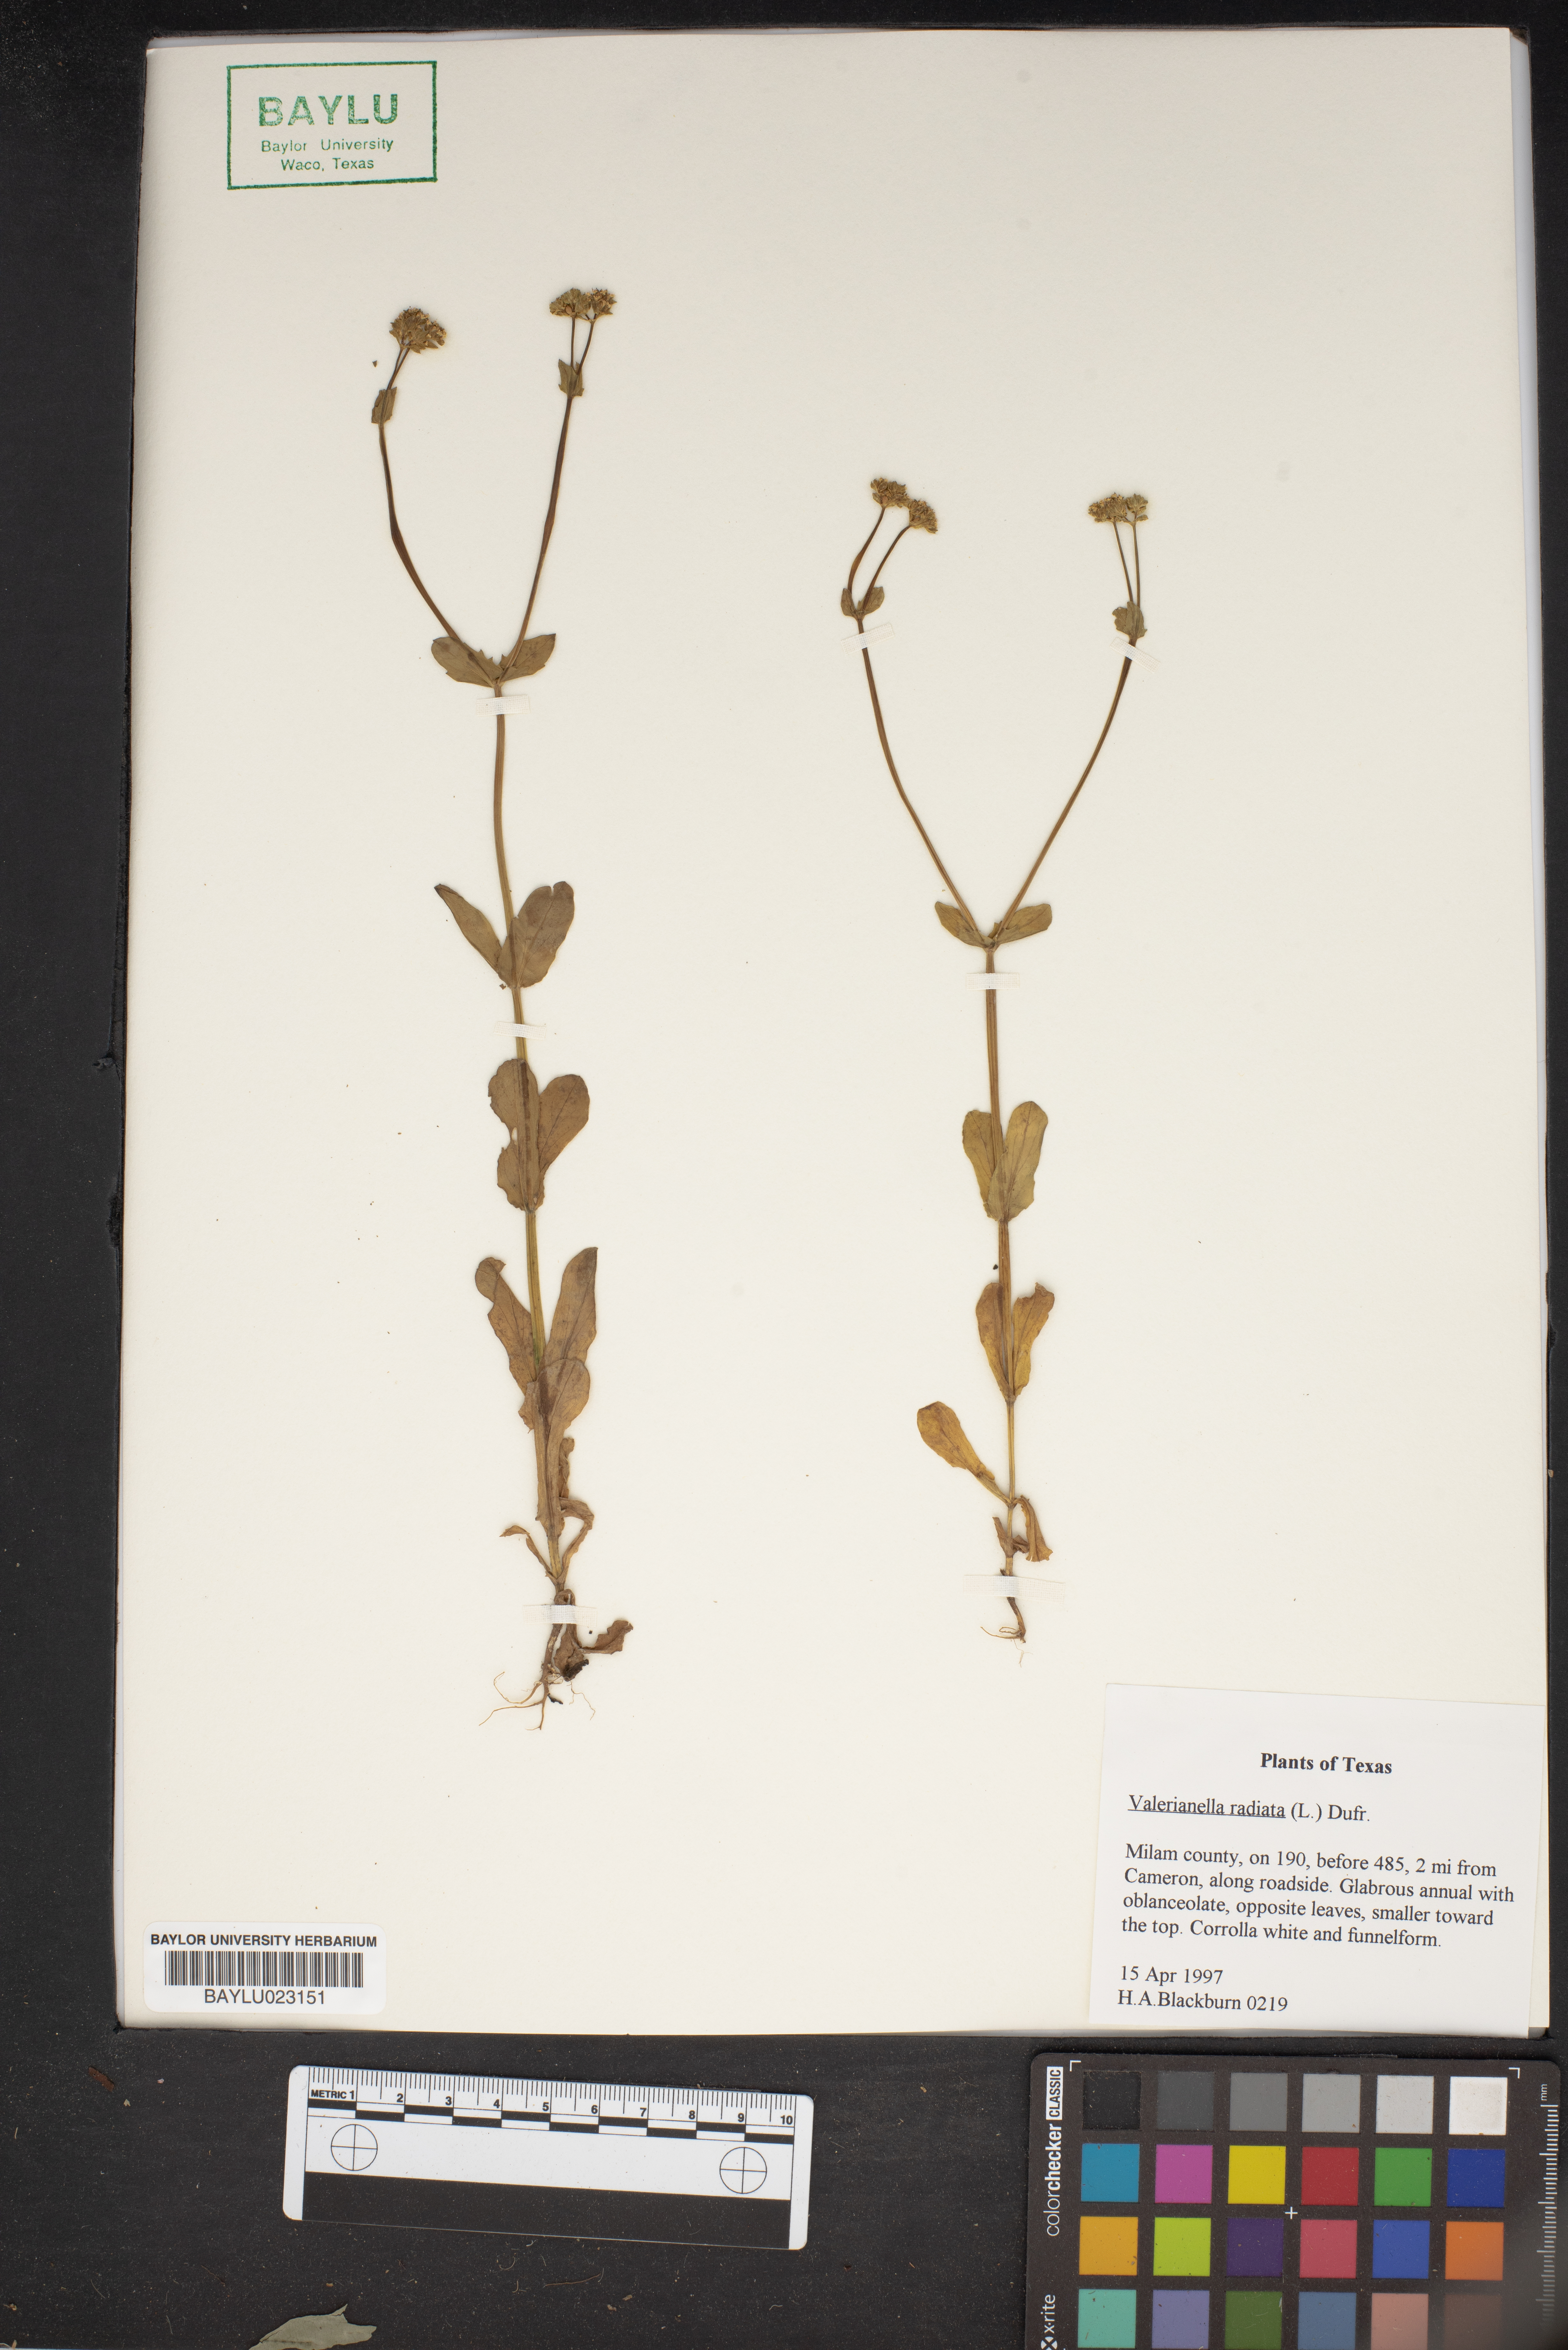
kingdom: Plantae
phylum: Tracheophyta
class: Magnoliopsida
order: Dipsacales
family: Caprifoliaceae
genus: Valerianella
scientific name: Valerianella radiata
